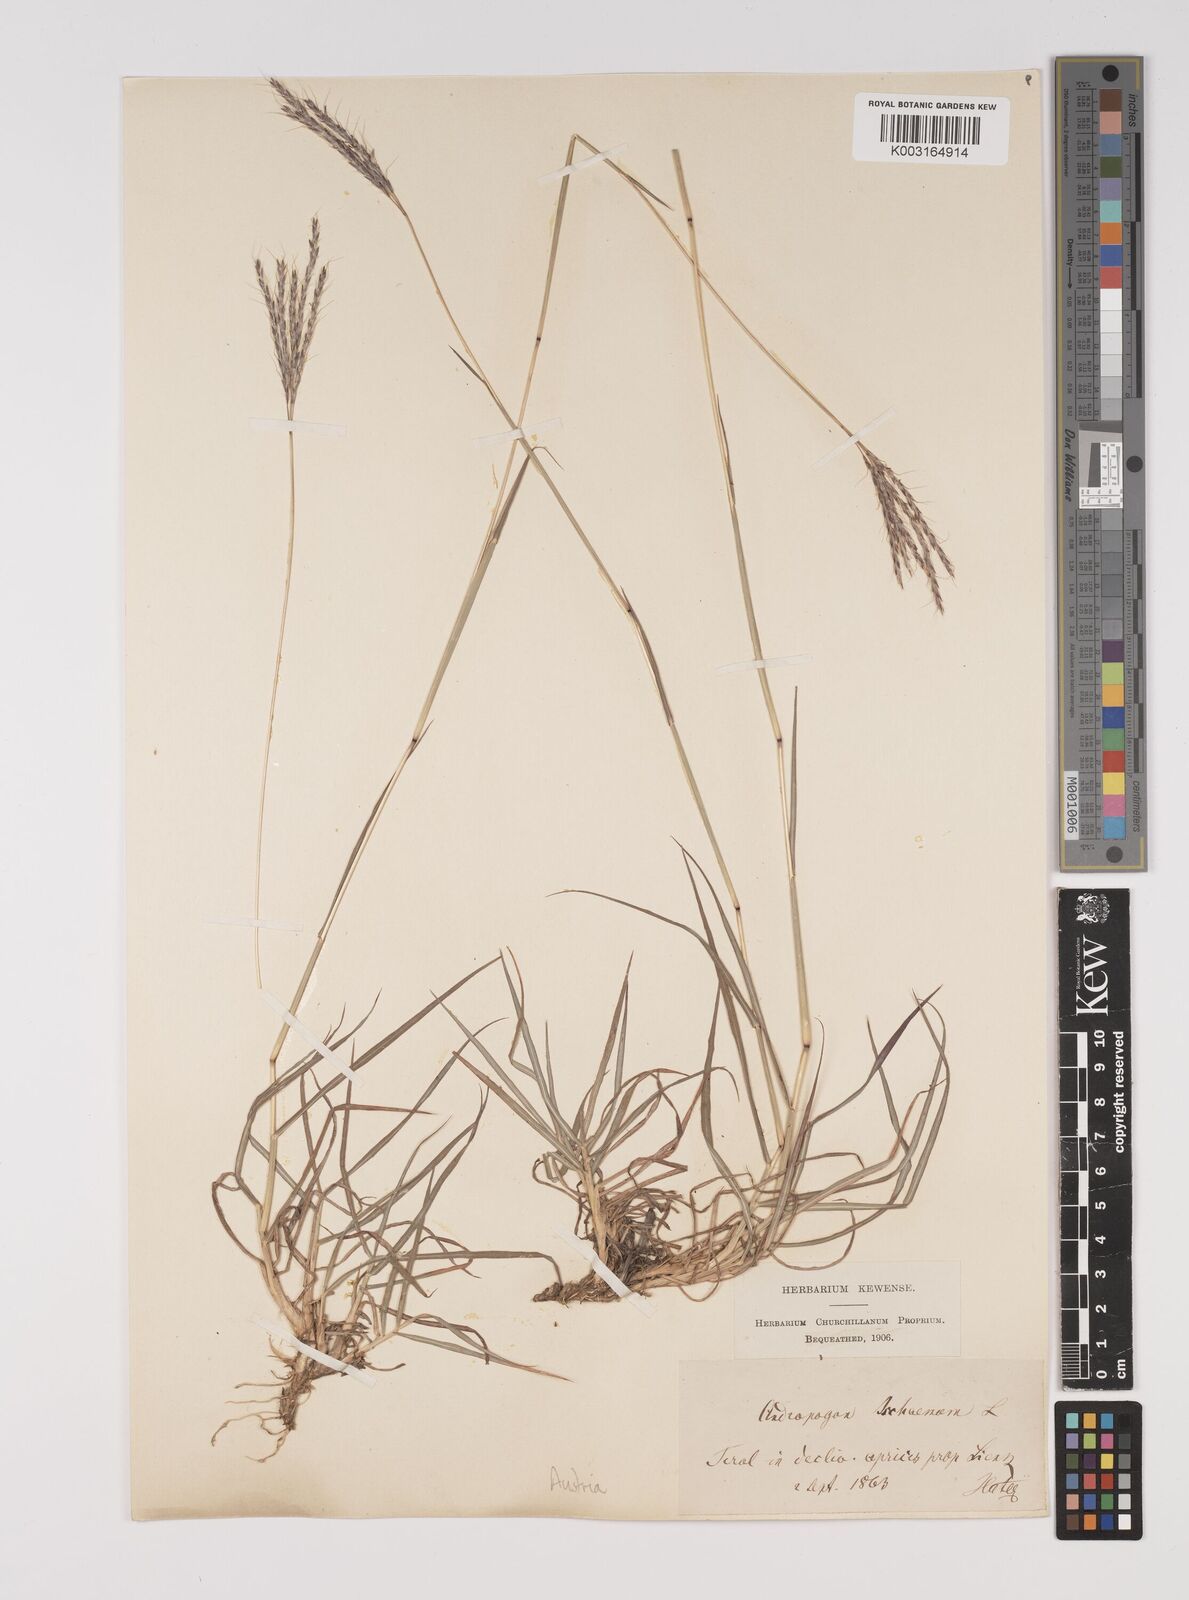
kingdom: Plantae
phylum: Tracheophyta
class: Liliopsida
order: Poales
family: Poaceae
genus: Bothriochloa
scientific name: Bothriochloa ischaemum
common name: Yellow bluestem
